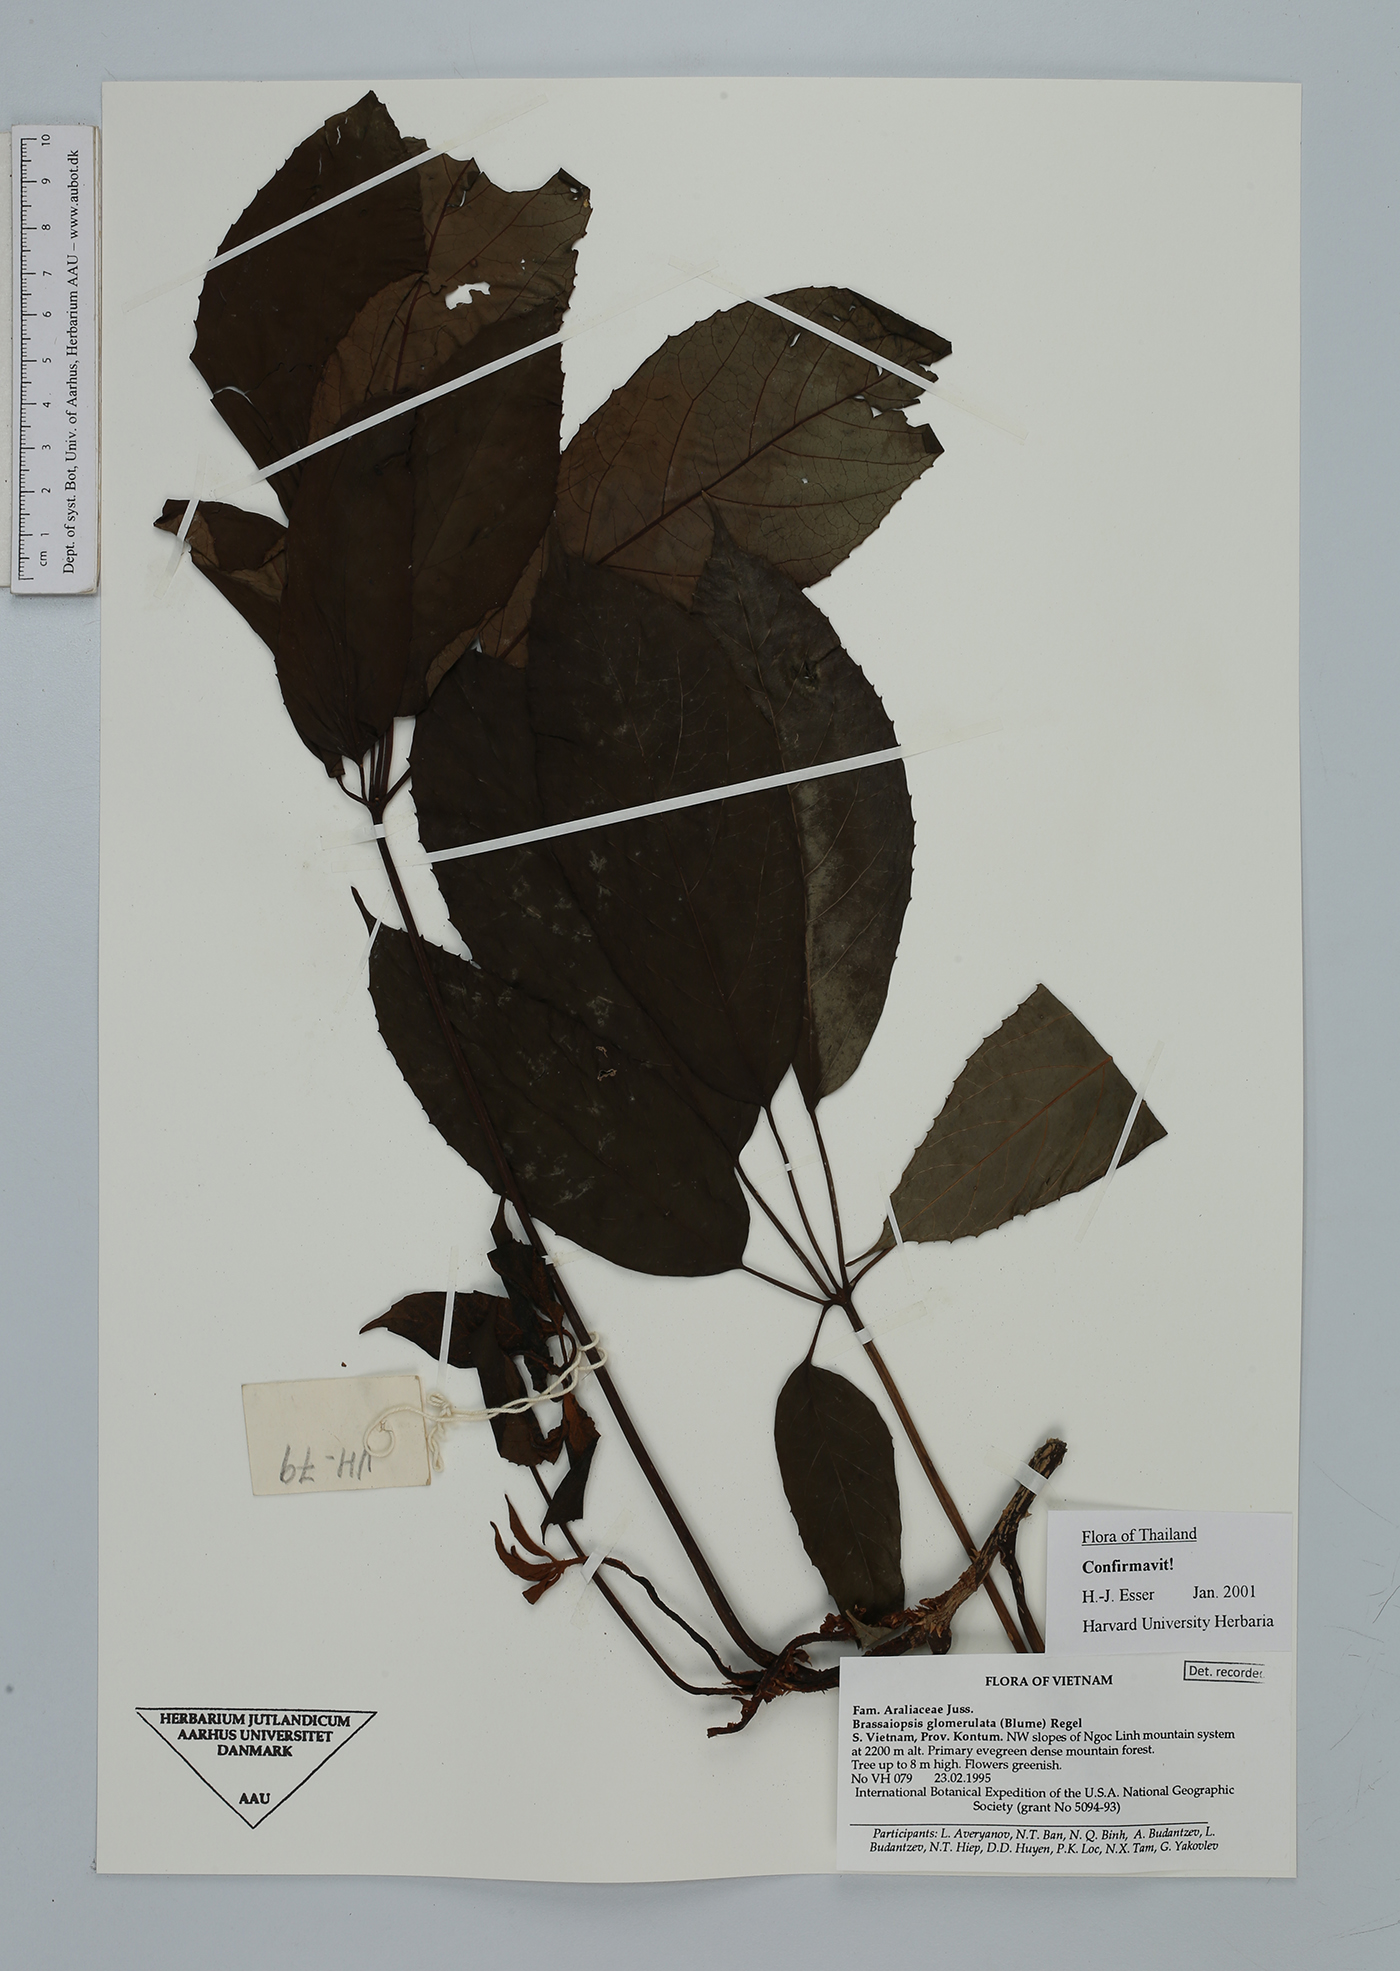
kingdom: Plantae
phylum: Tracheophyta
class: Magnoliopsida
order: Apiales
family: Araliaceae
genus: Brassaiopsis
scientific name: Brassaiopsis glomerulata
